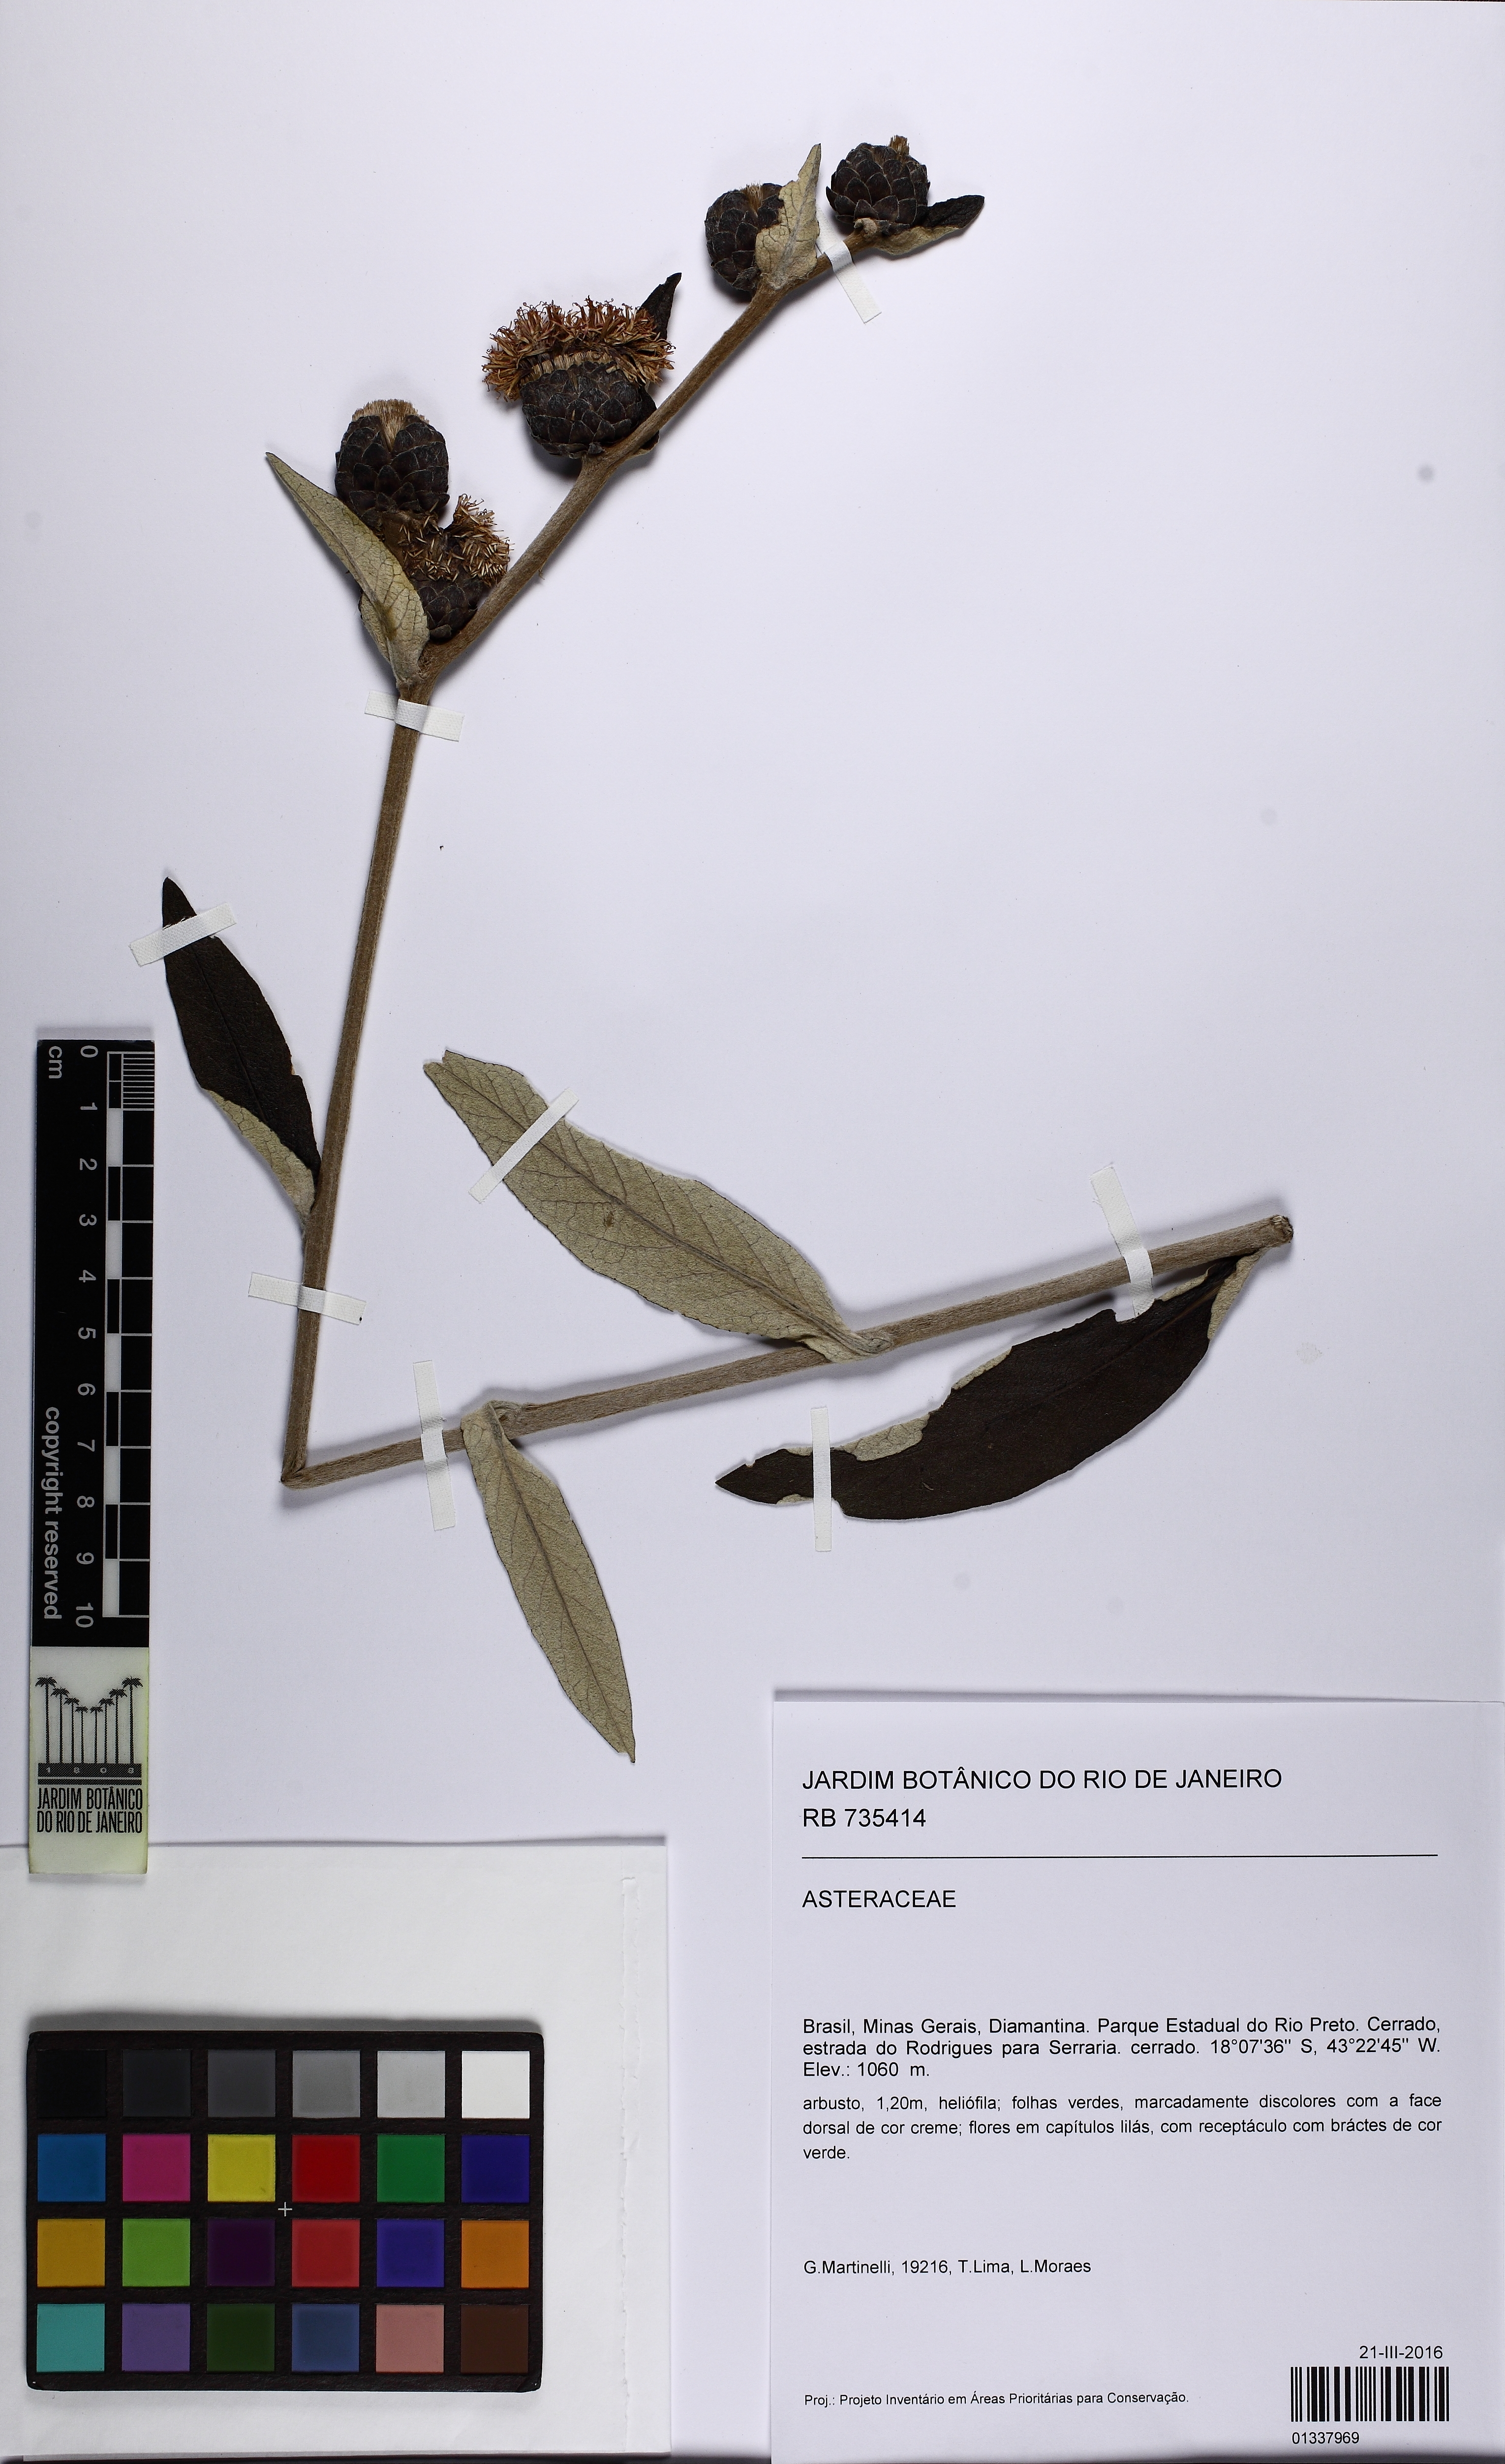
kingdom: Plantae
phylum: Tracheophyta
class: Magnoliopsida
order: Asterales
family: Asteraceae
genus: Lessingianthus
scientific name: Lessingianthus
